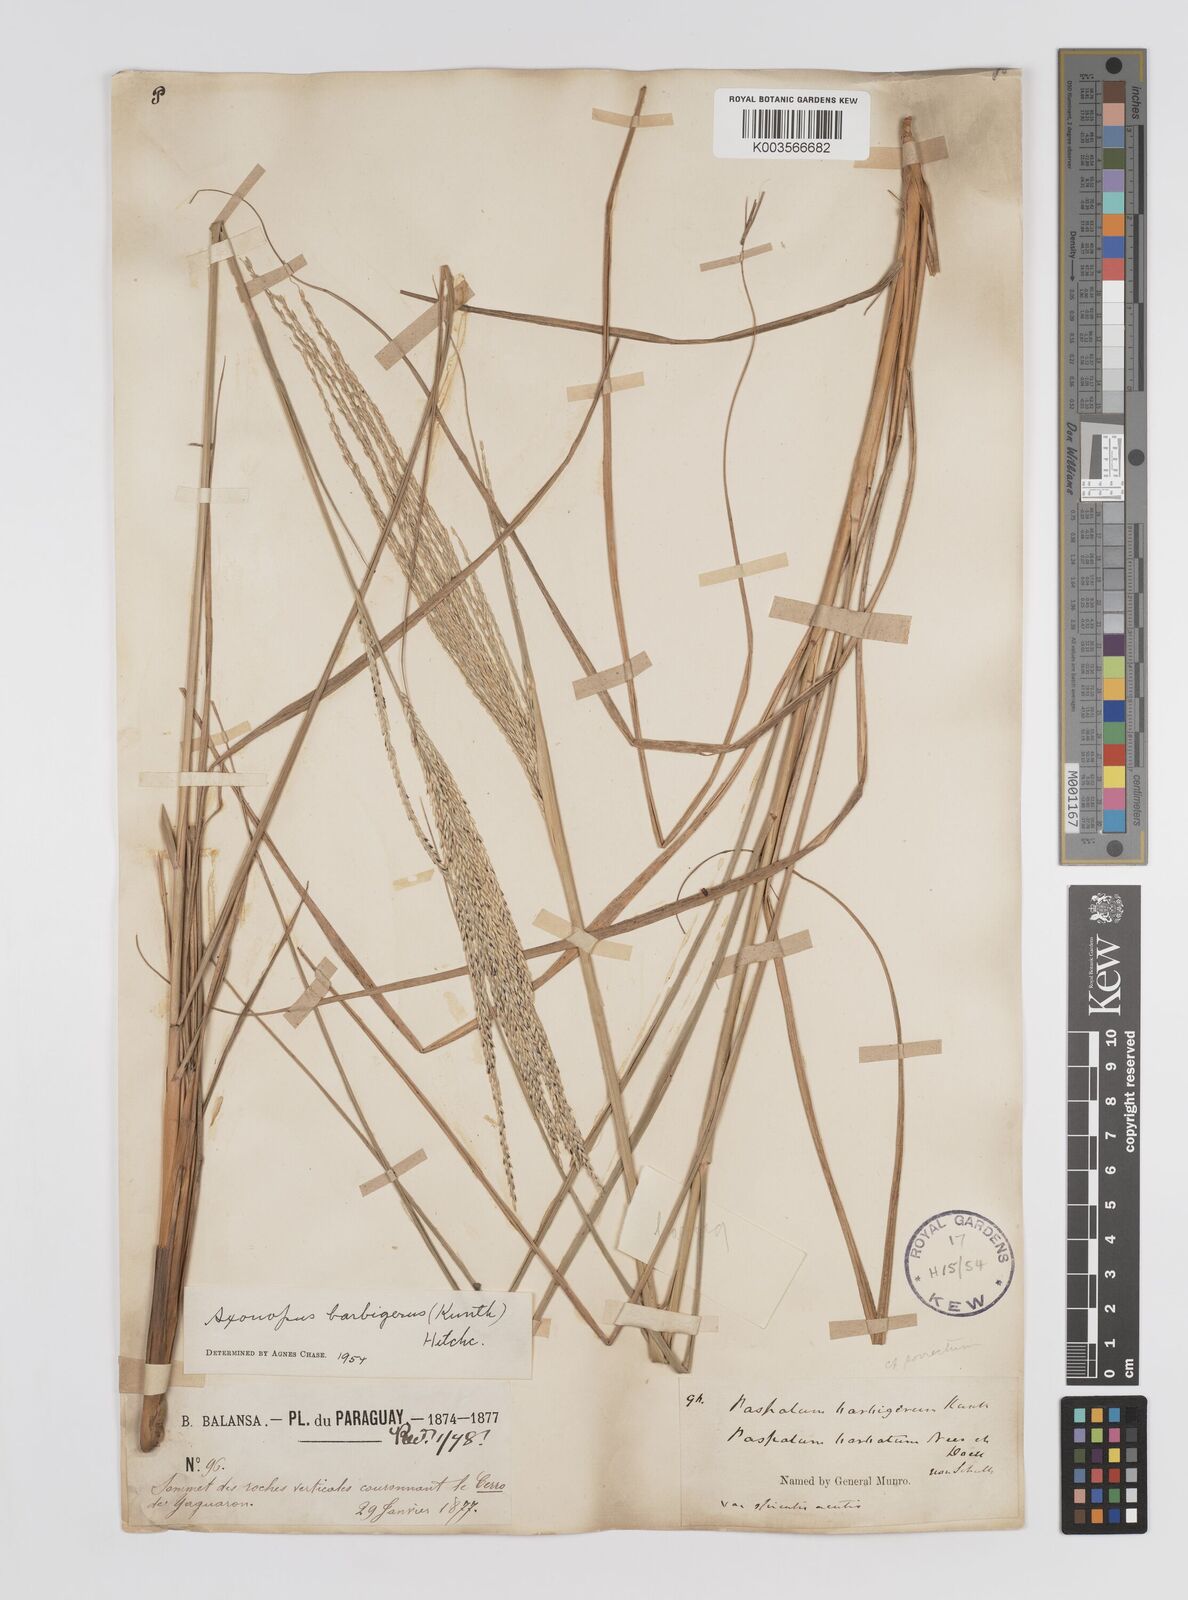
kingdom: Plantae
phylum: Tracheophyta
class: Liliopsida
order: Poales
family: Poaceae
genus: Axonopus
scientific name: Axonopus siccus
